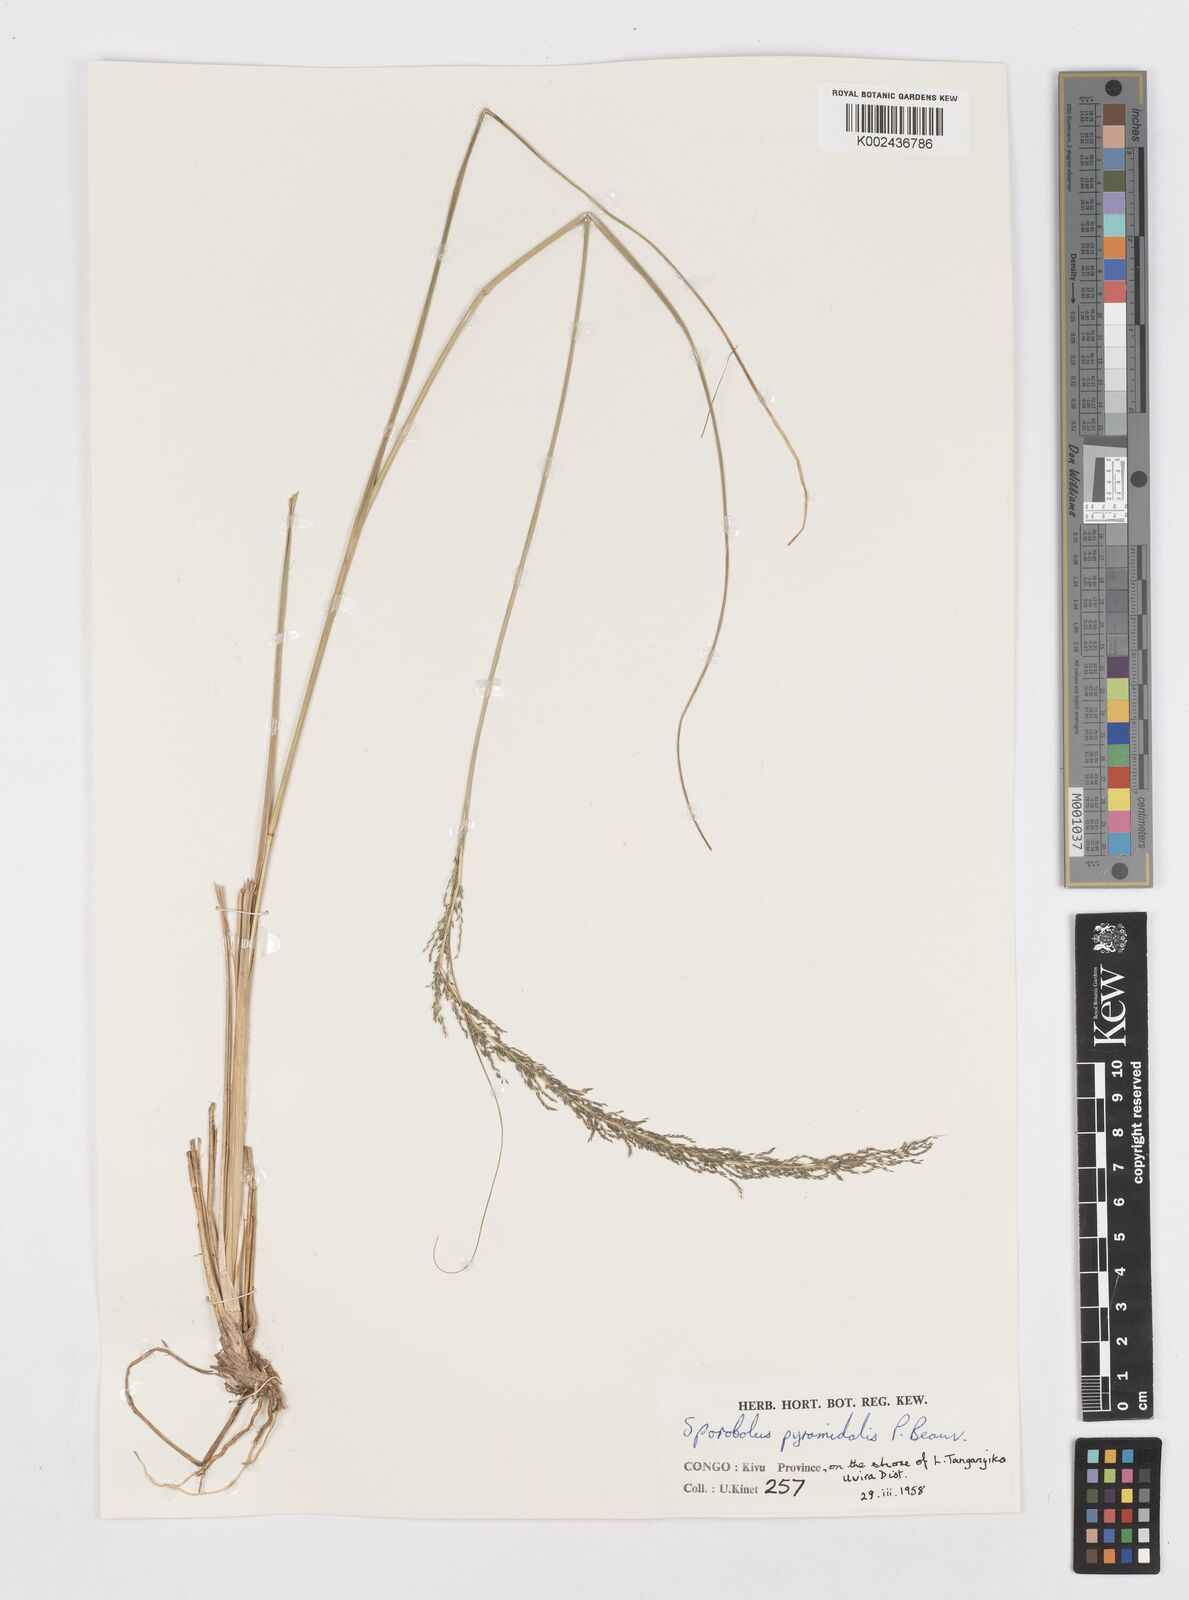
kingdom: Plantae
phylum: Tracheophyta
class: Liliopsida
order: Poales
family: Poaceae
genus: Sporobolus
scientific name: Sporobolus pyramidalis
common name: West indian dropseed
